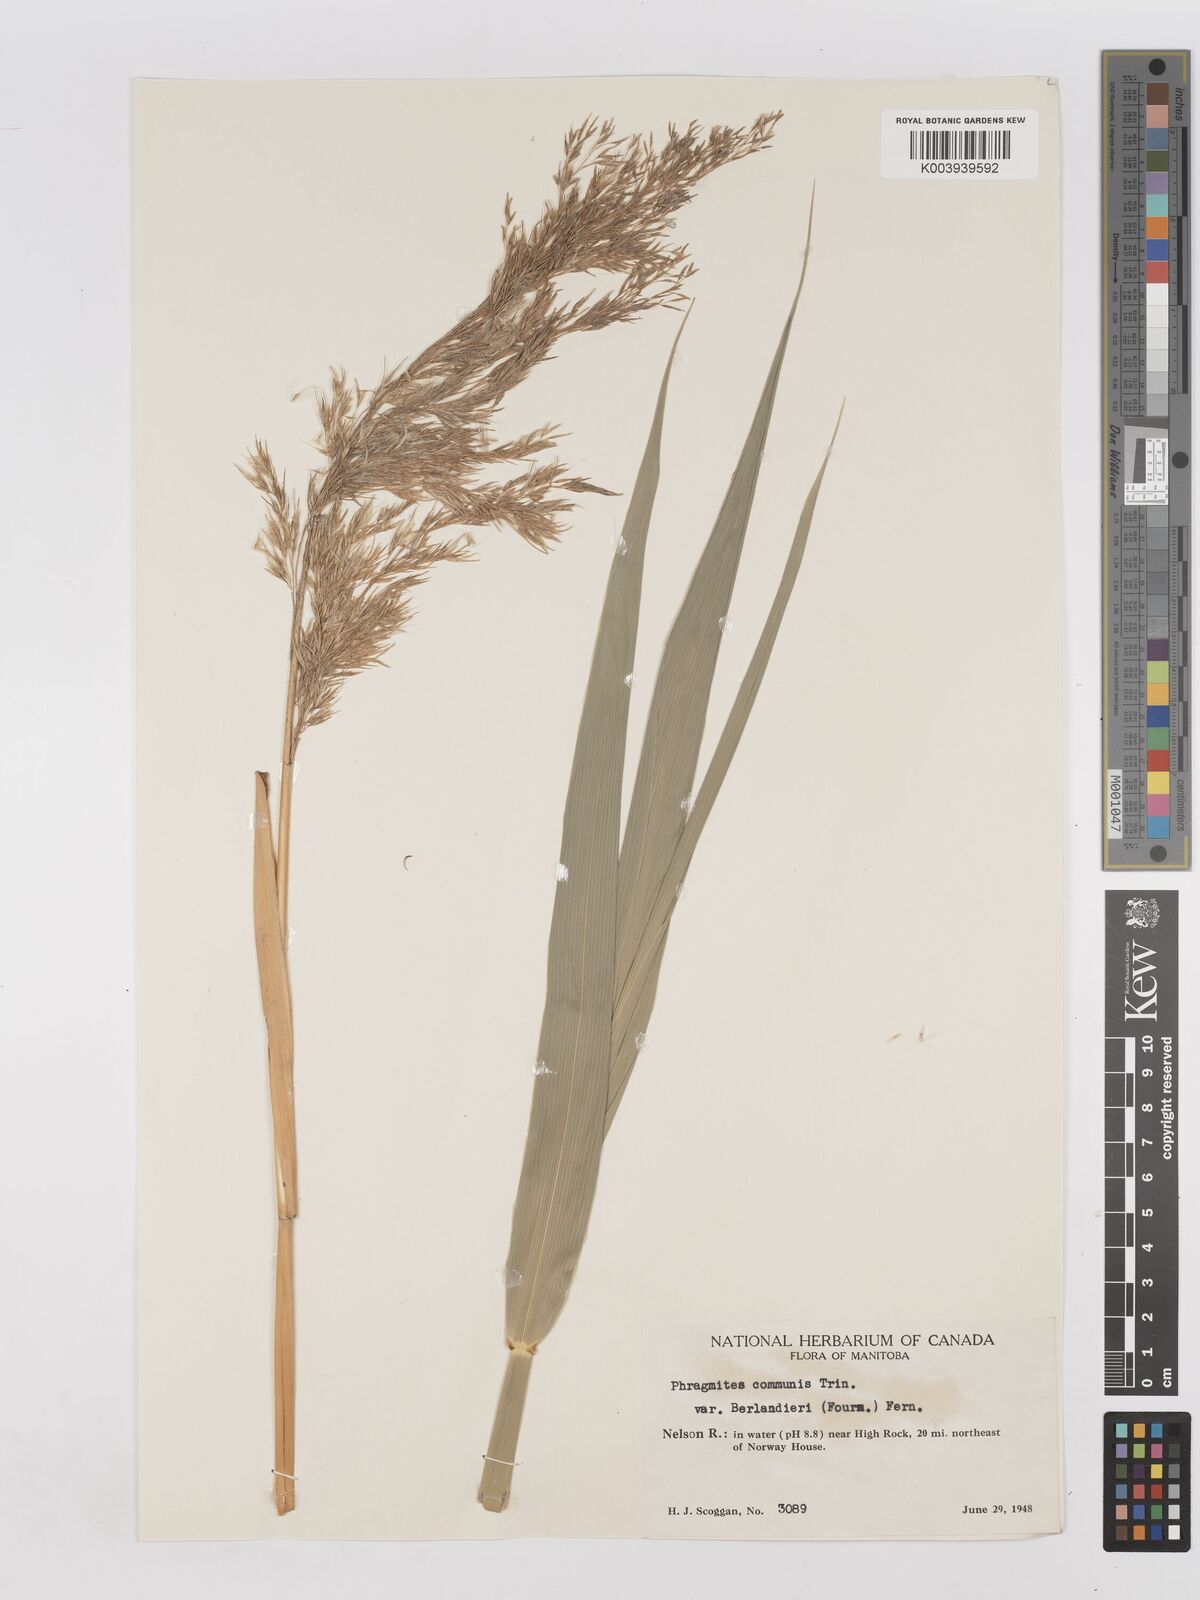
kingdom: Plantae
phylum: Tracheophyta
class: Liliopsida
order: Poales
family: Poaceae
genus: Phragmites
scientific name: Phragmites australis
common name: Common reed
